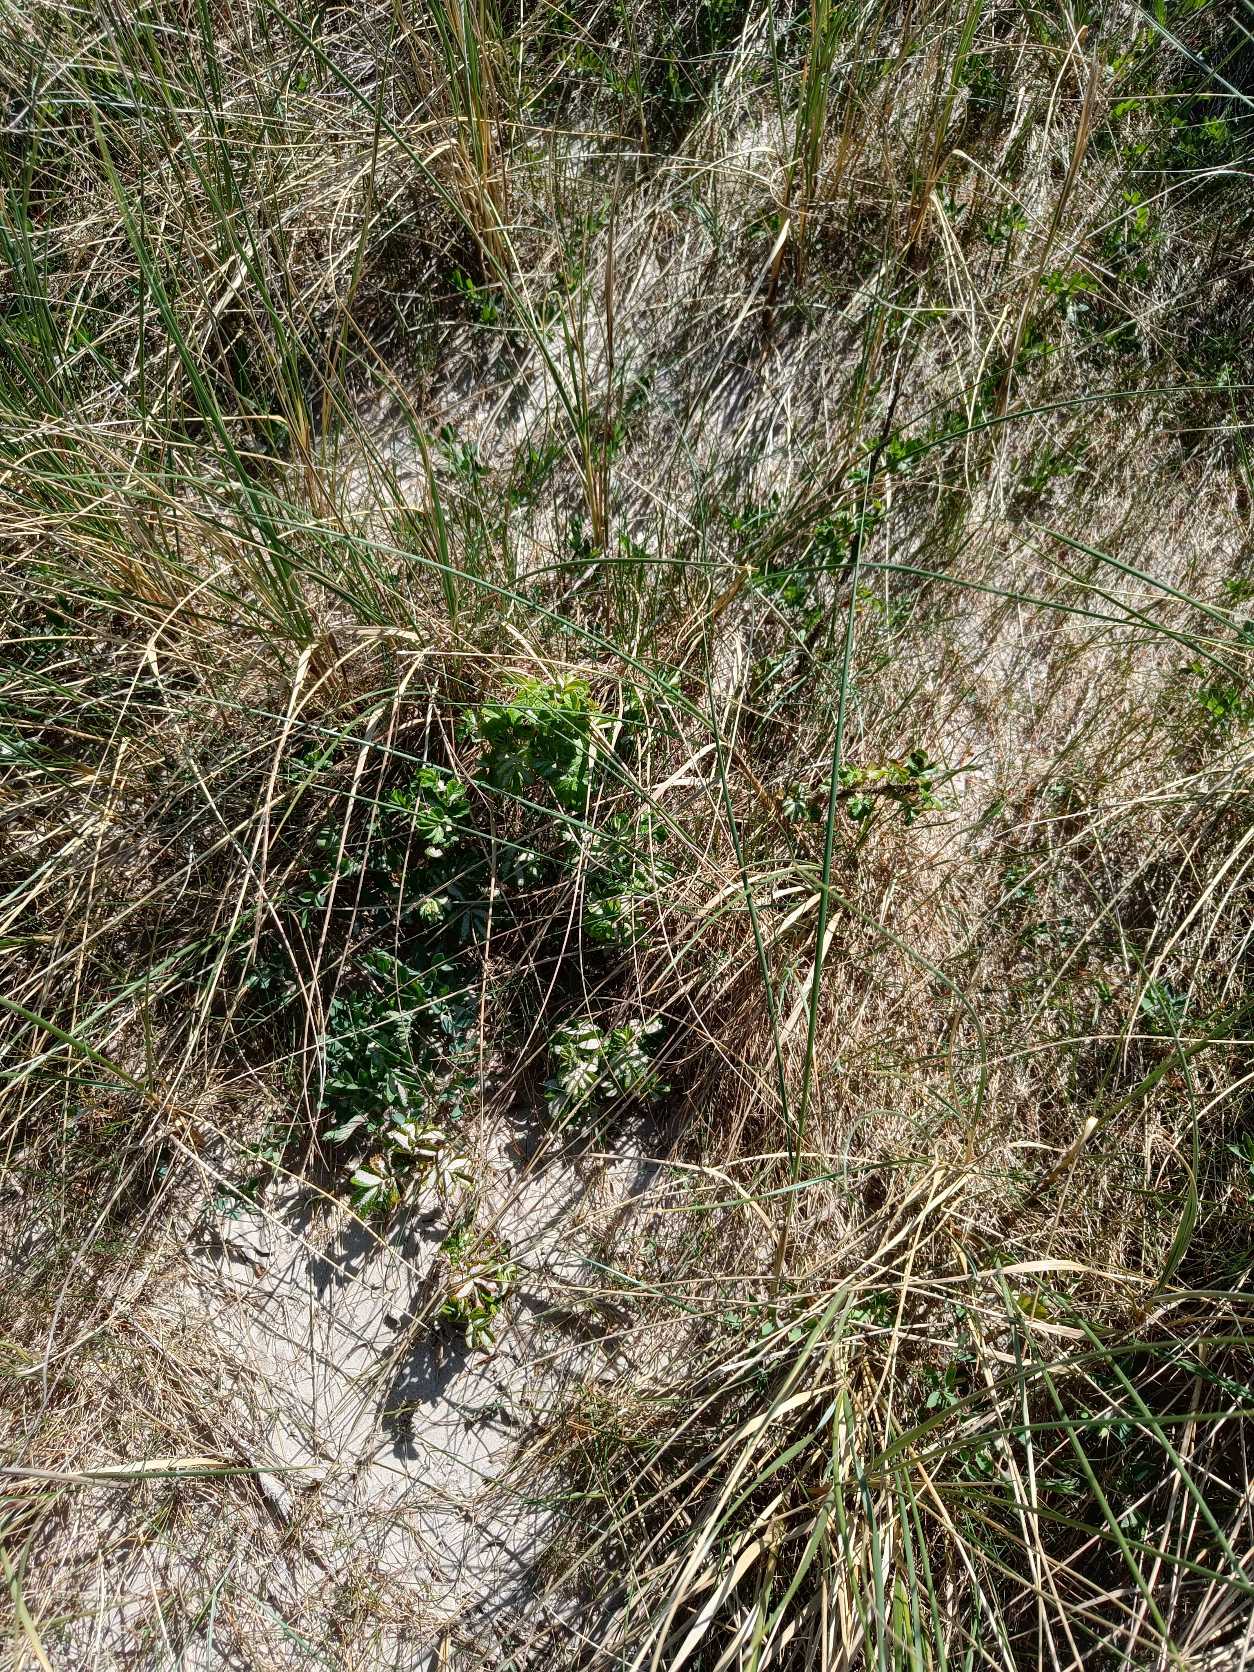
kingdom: Plantae
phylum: Tracheophyta
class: Magnoliopsida
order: Rosales
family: Rosaceae
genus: Rosa
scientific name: Rosa rugosa
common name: Rynket rose
